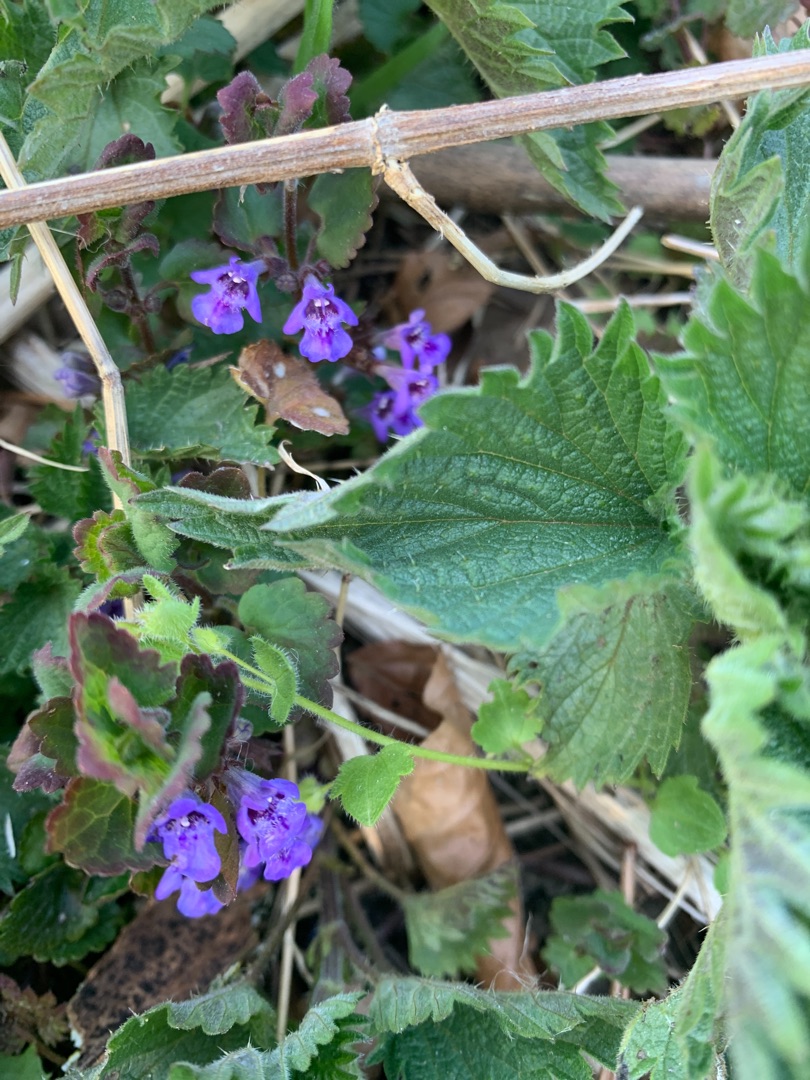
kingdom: Plantae
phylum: Tracheophyta
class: Magnoliopsida
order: Lamiales
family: Lamiaceae
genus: Glechoma
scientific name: Glechoma hederacea
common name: Korsknap
